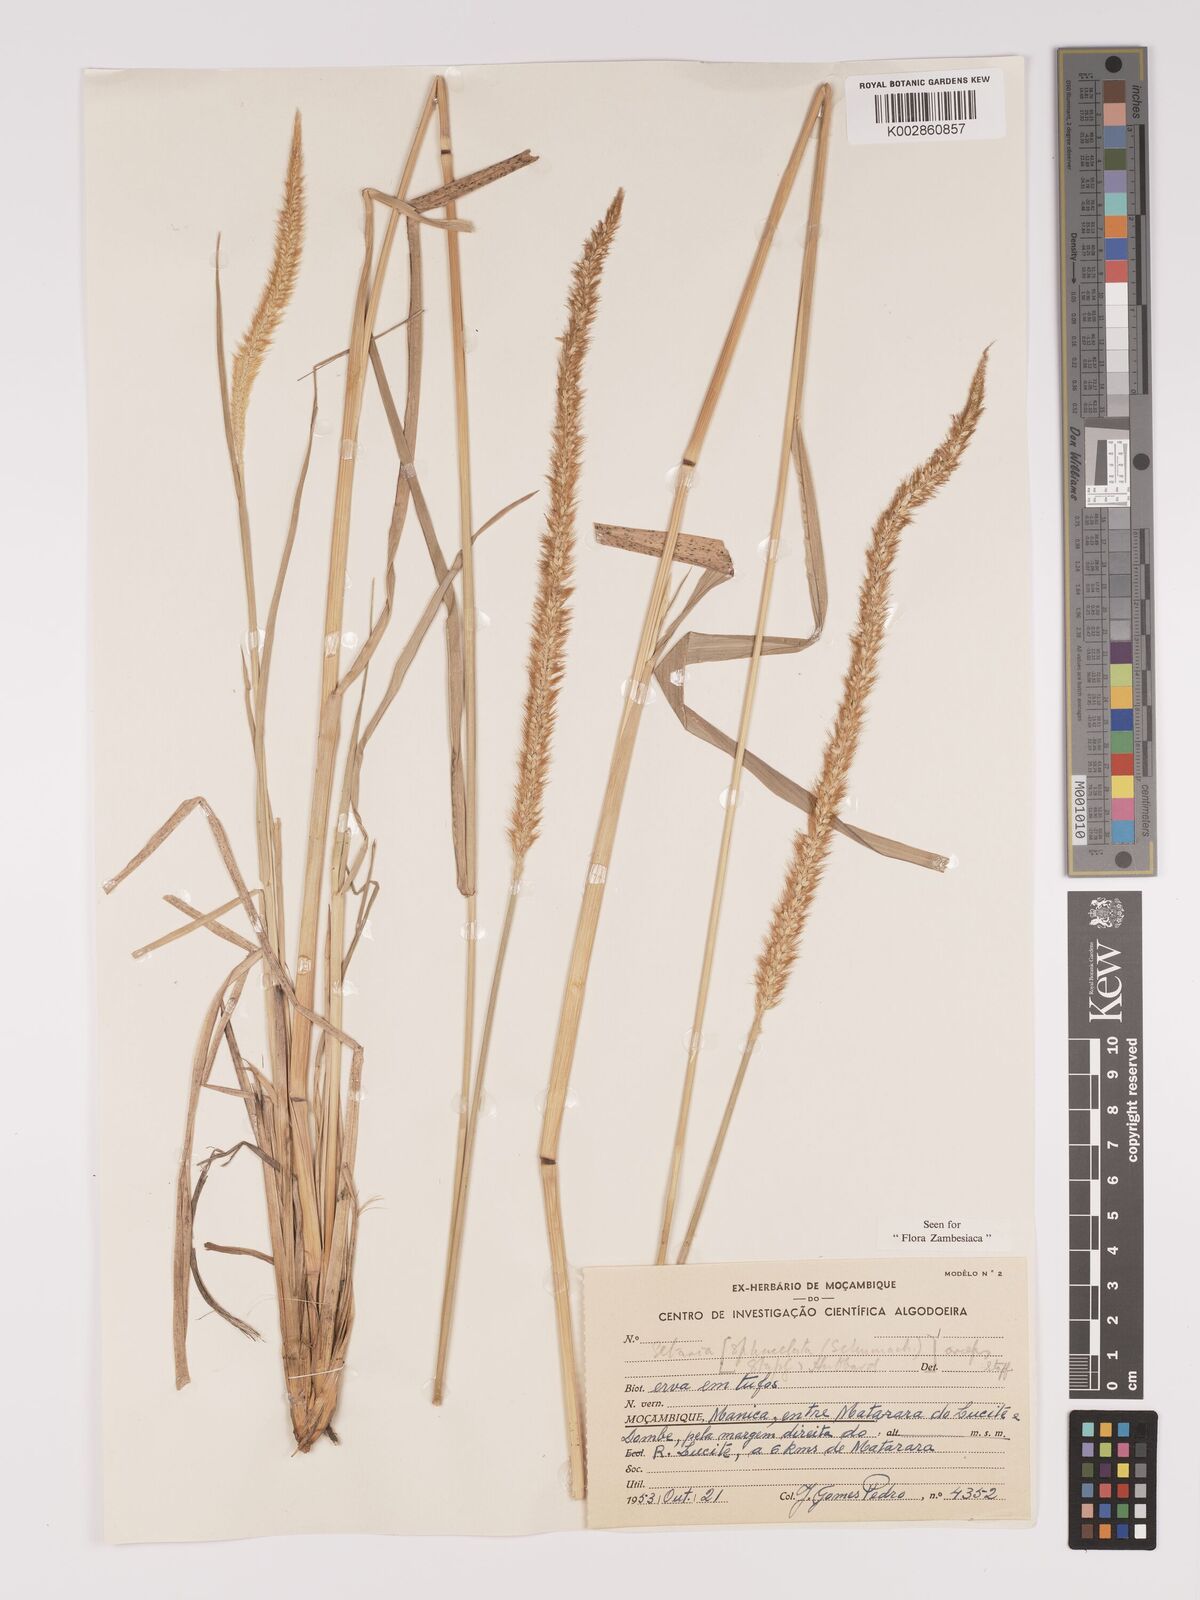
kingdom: Plantae
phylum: Tracheophyta
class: Liliopsida
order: Poales
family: Poaceae
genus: Setaria
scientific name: Setaria sphacelata
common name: African bristlegrass
